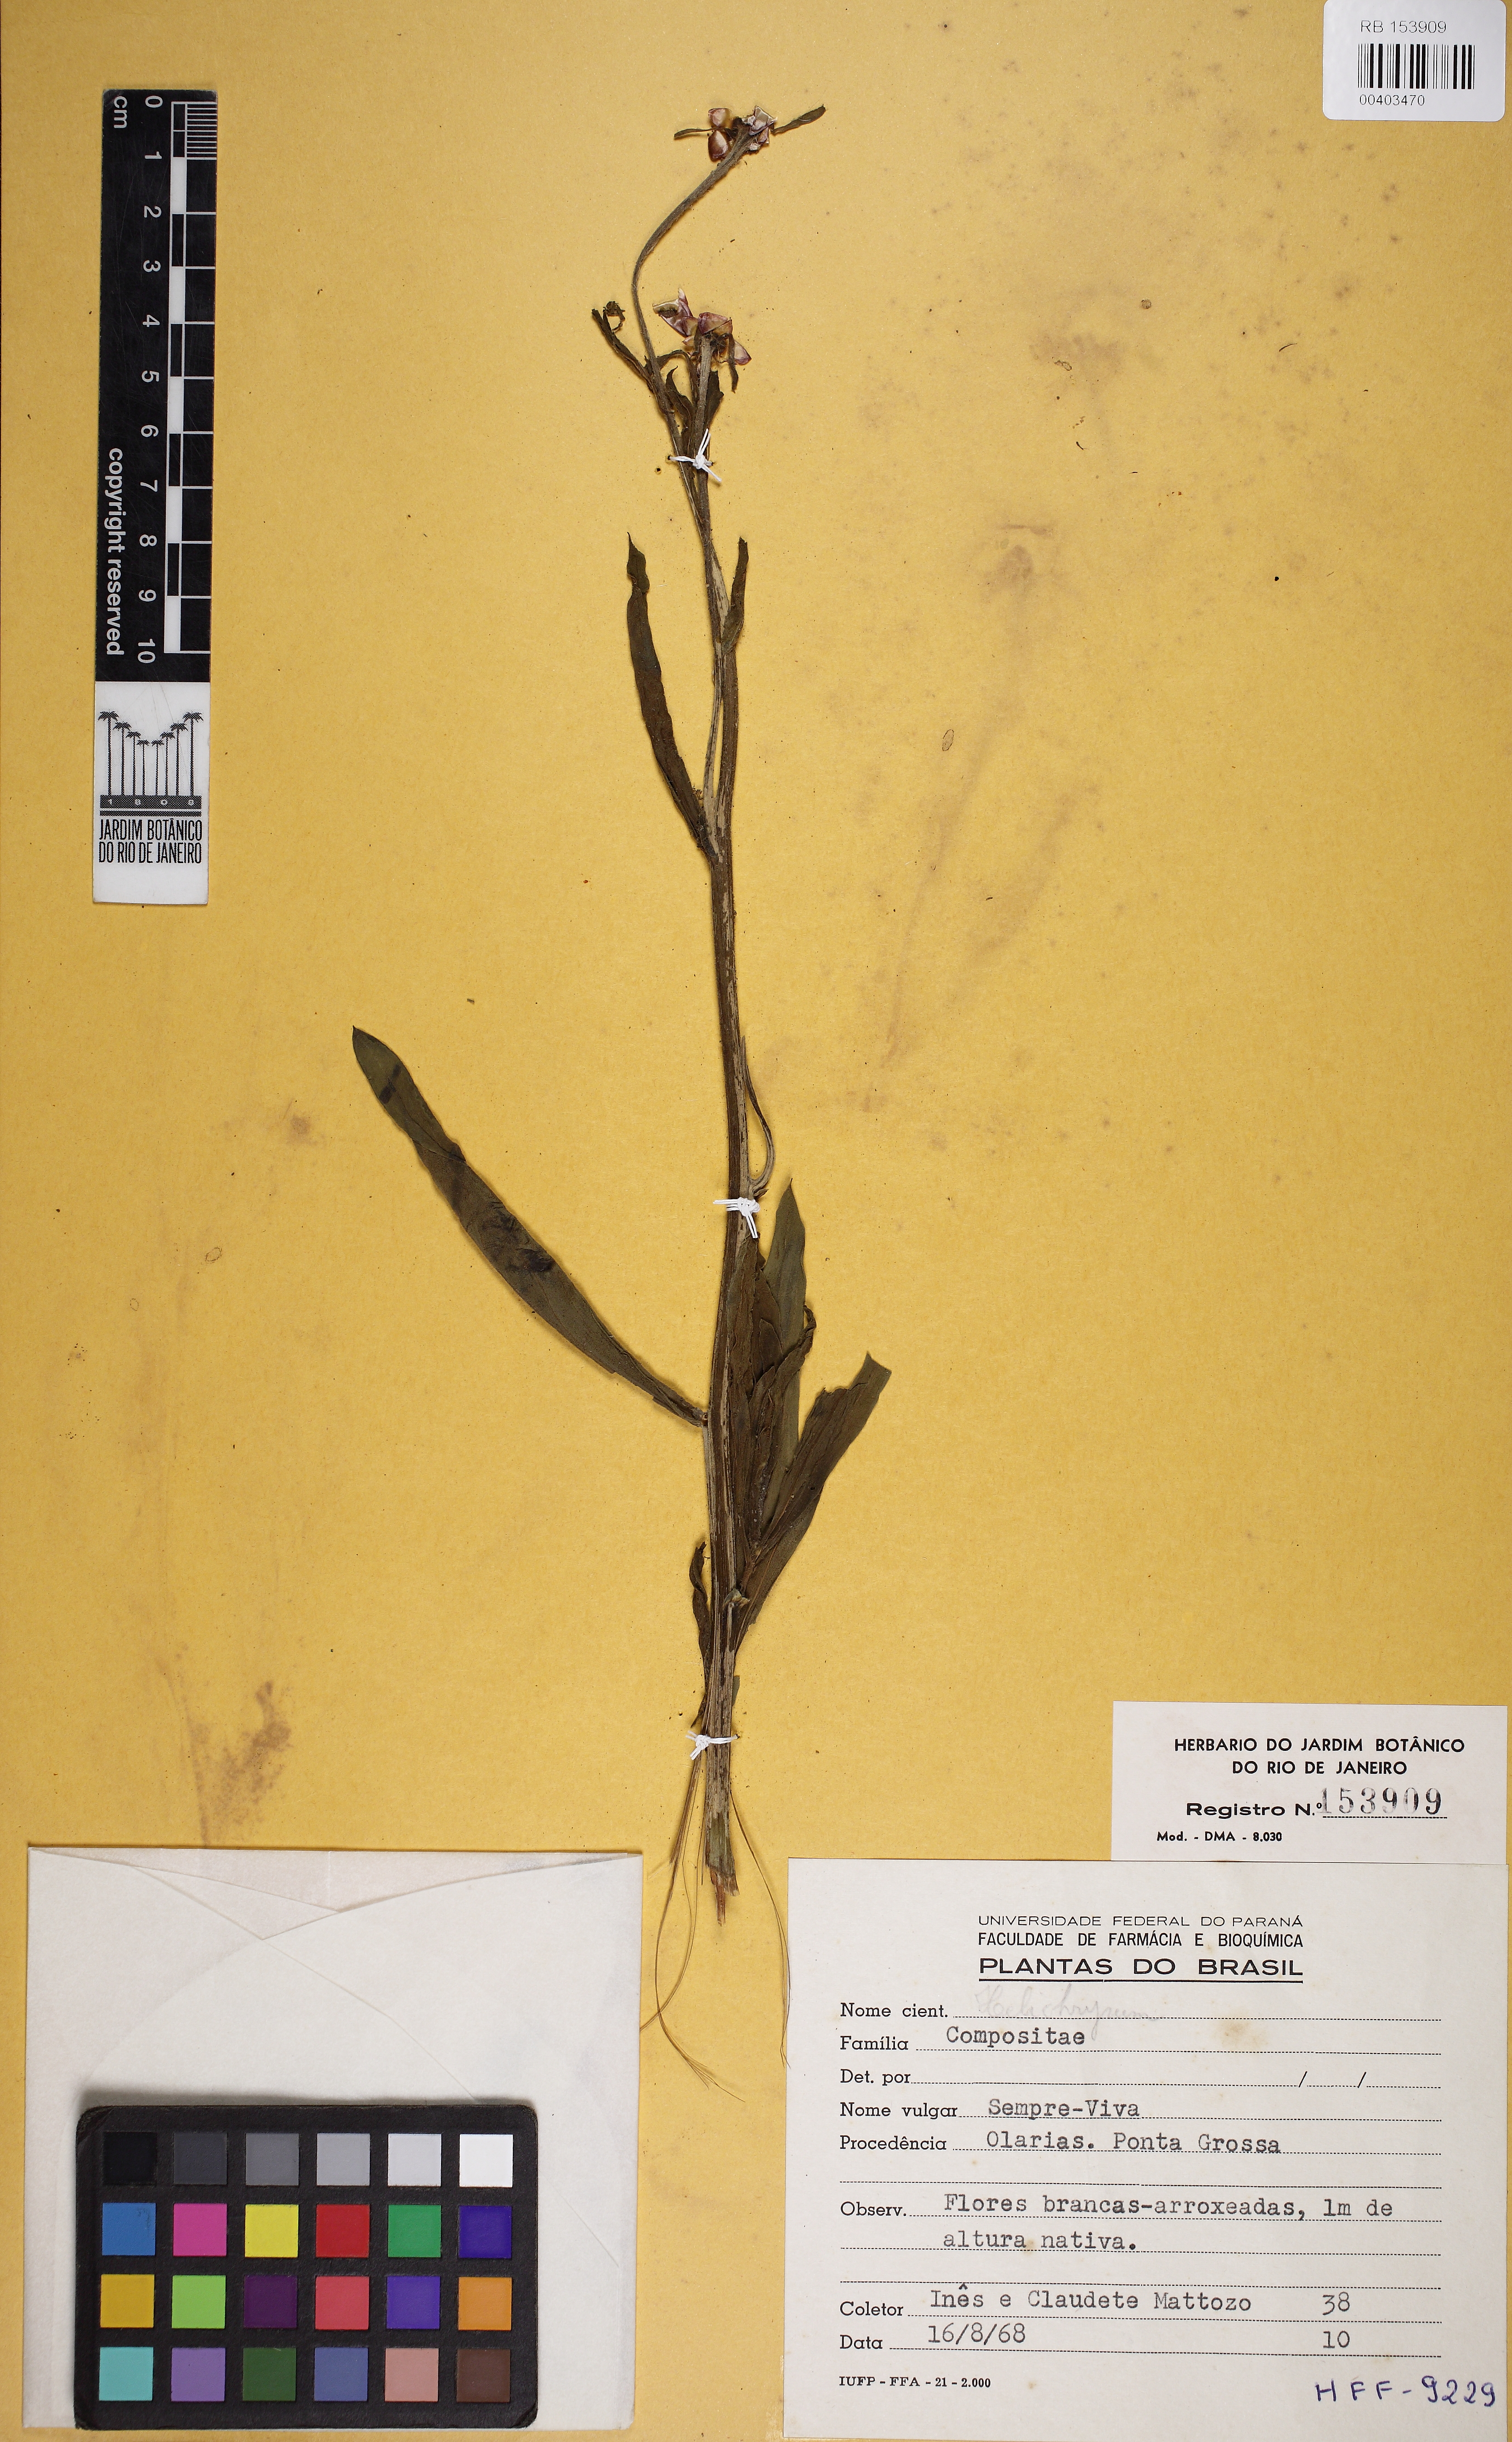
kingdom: Plantae
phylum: Tracheophyta
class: Magnoliopsida
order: Asterales
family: Asteraceae
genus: Helichrysum
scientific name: Helichrysum
